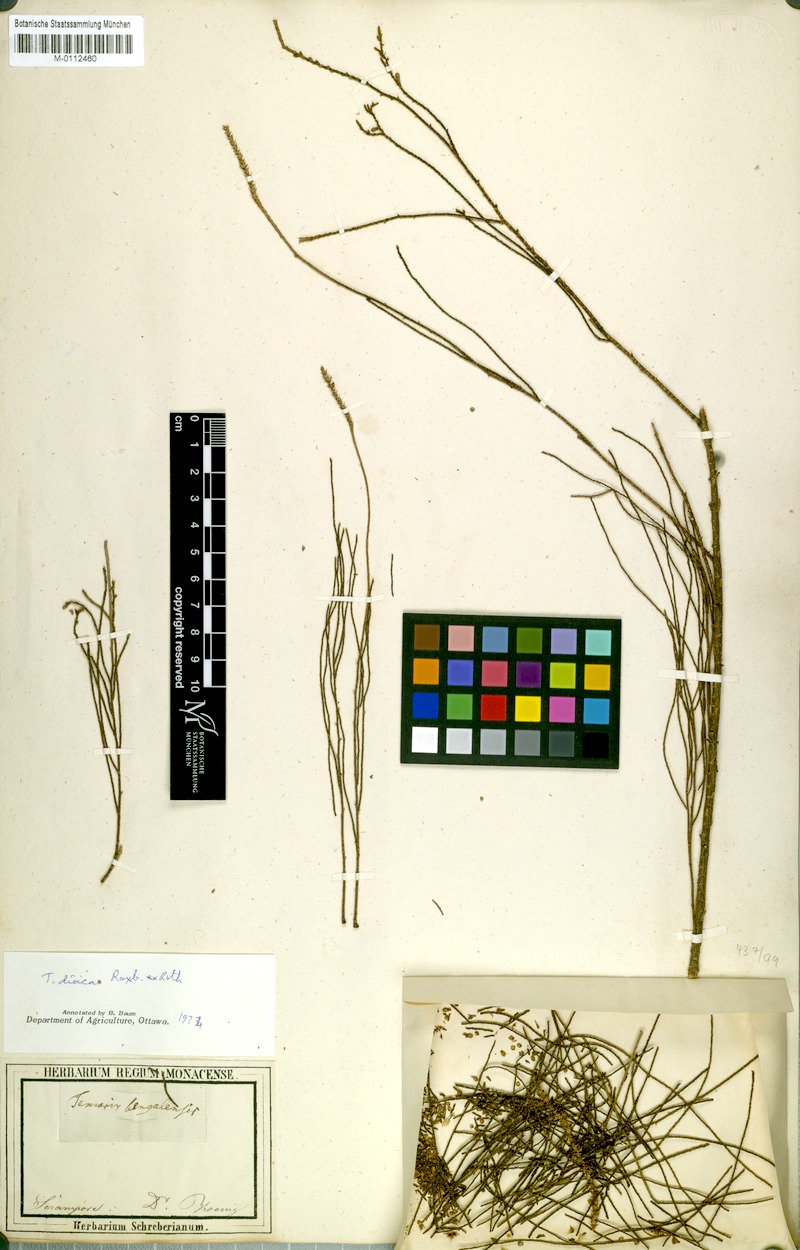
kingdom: Plantae
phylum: Tracheophyta
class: Magnoliopsida
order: Caryophyllales
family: Tamaricaceae
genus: Tamarix
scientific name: Tamarix indica
